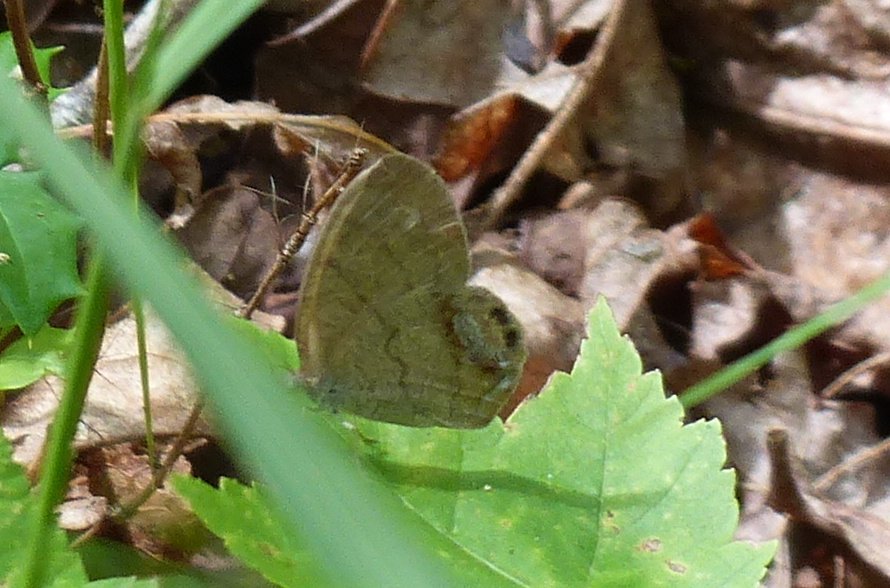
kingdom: Animalia
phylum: Arthropoda
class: Insecta
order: Lepidoptera
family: Nymphalidae
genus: Euptychia
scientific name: Euptychia cornelius
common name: Gemmed Satyr
